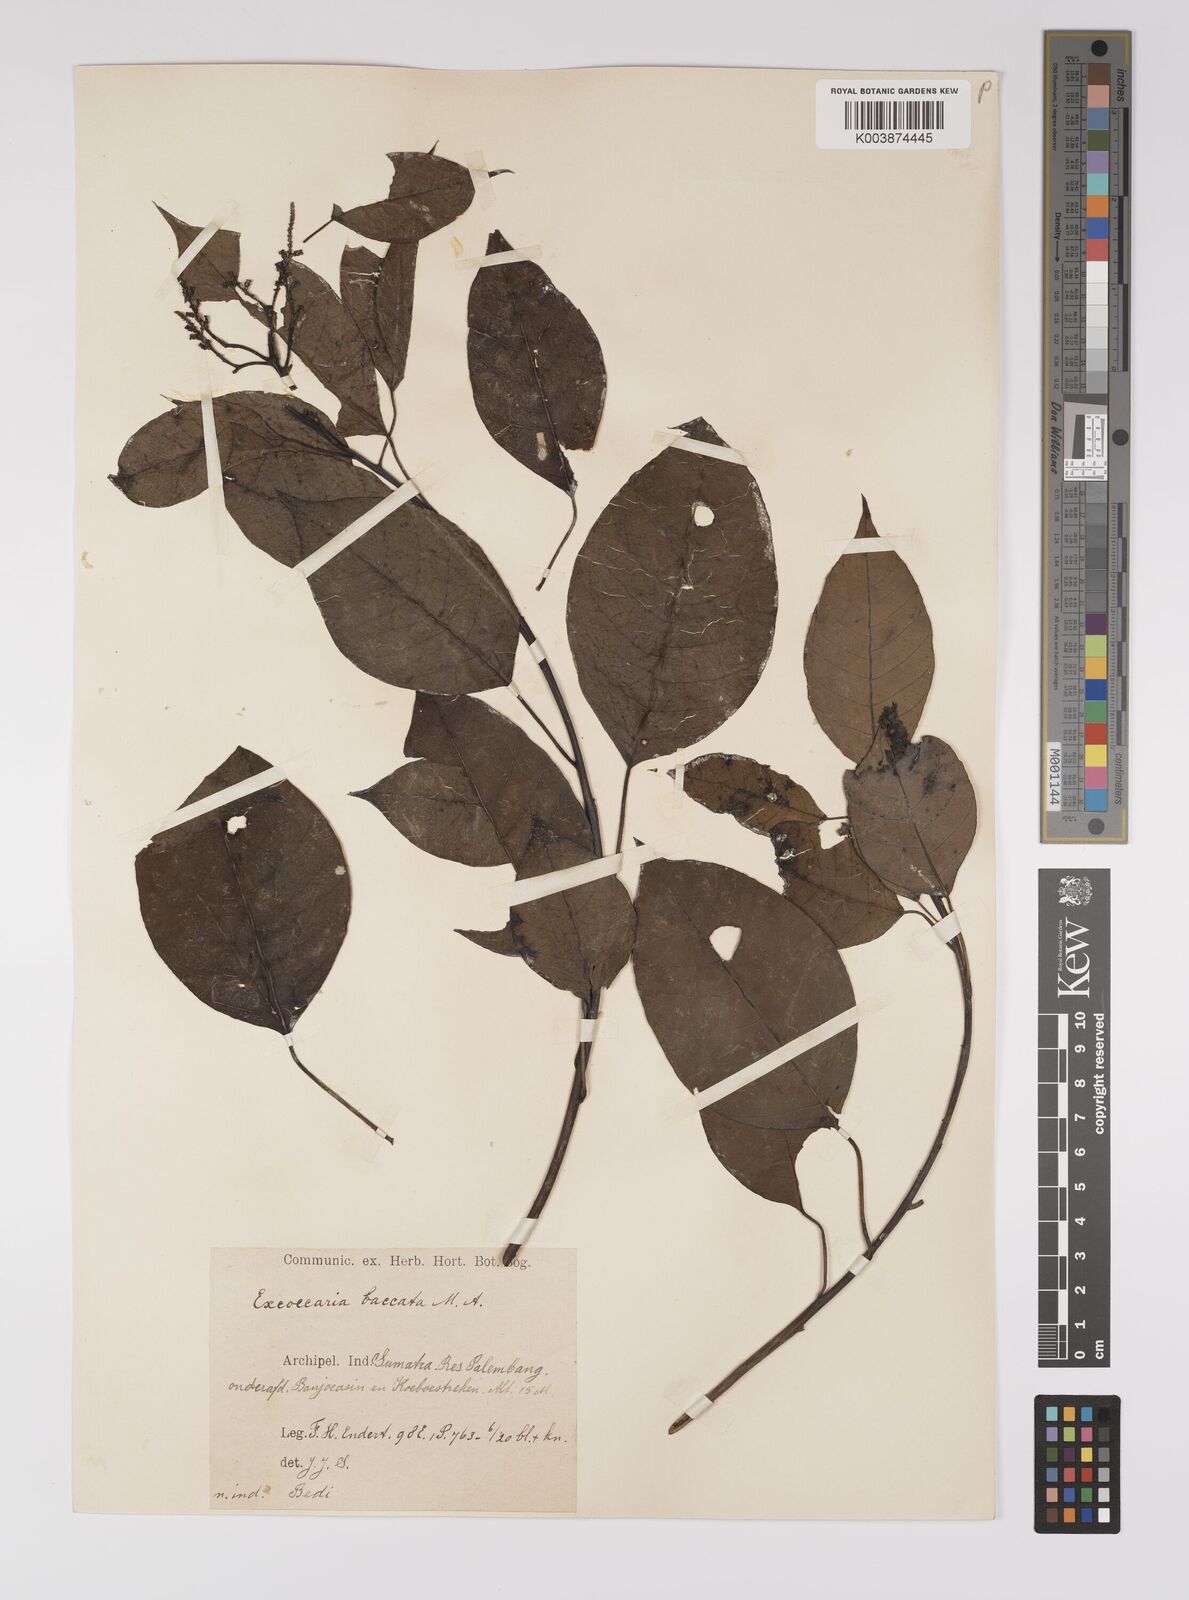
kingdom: Plantae
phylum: Tracheophyta
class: Magnoliopsida
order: Malpighiales
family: Euphorbiaceae
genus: Balakata
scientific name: Balakata baccata
